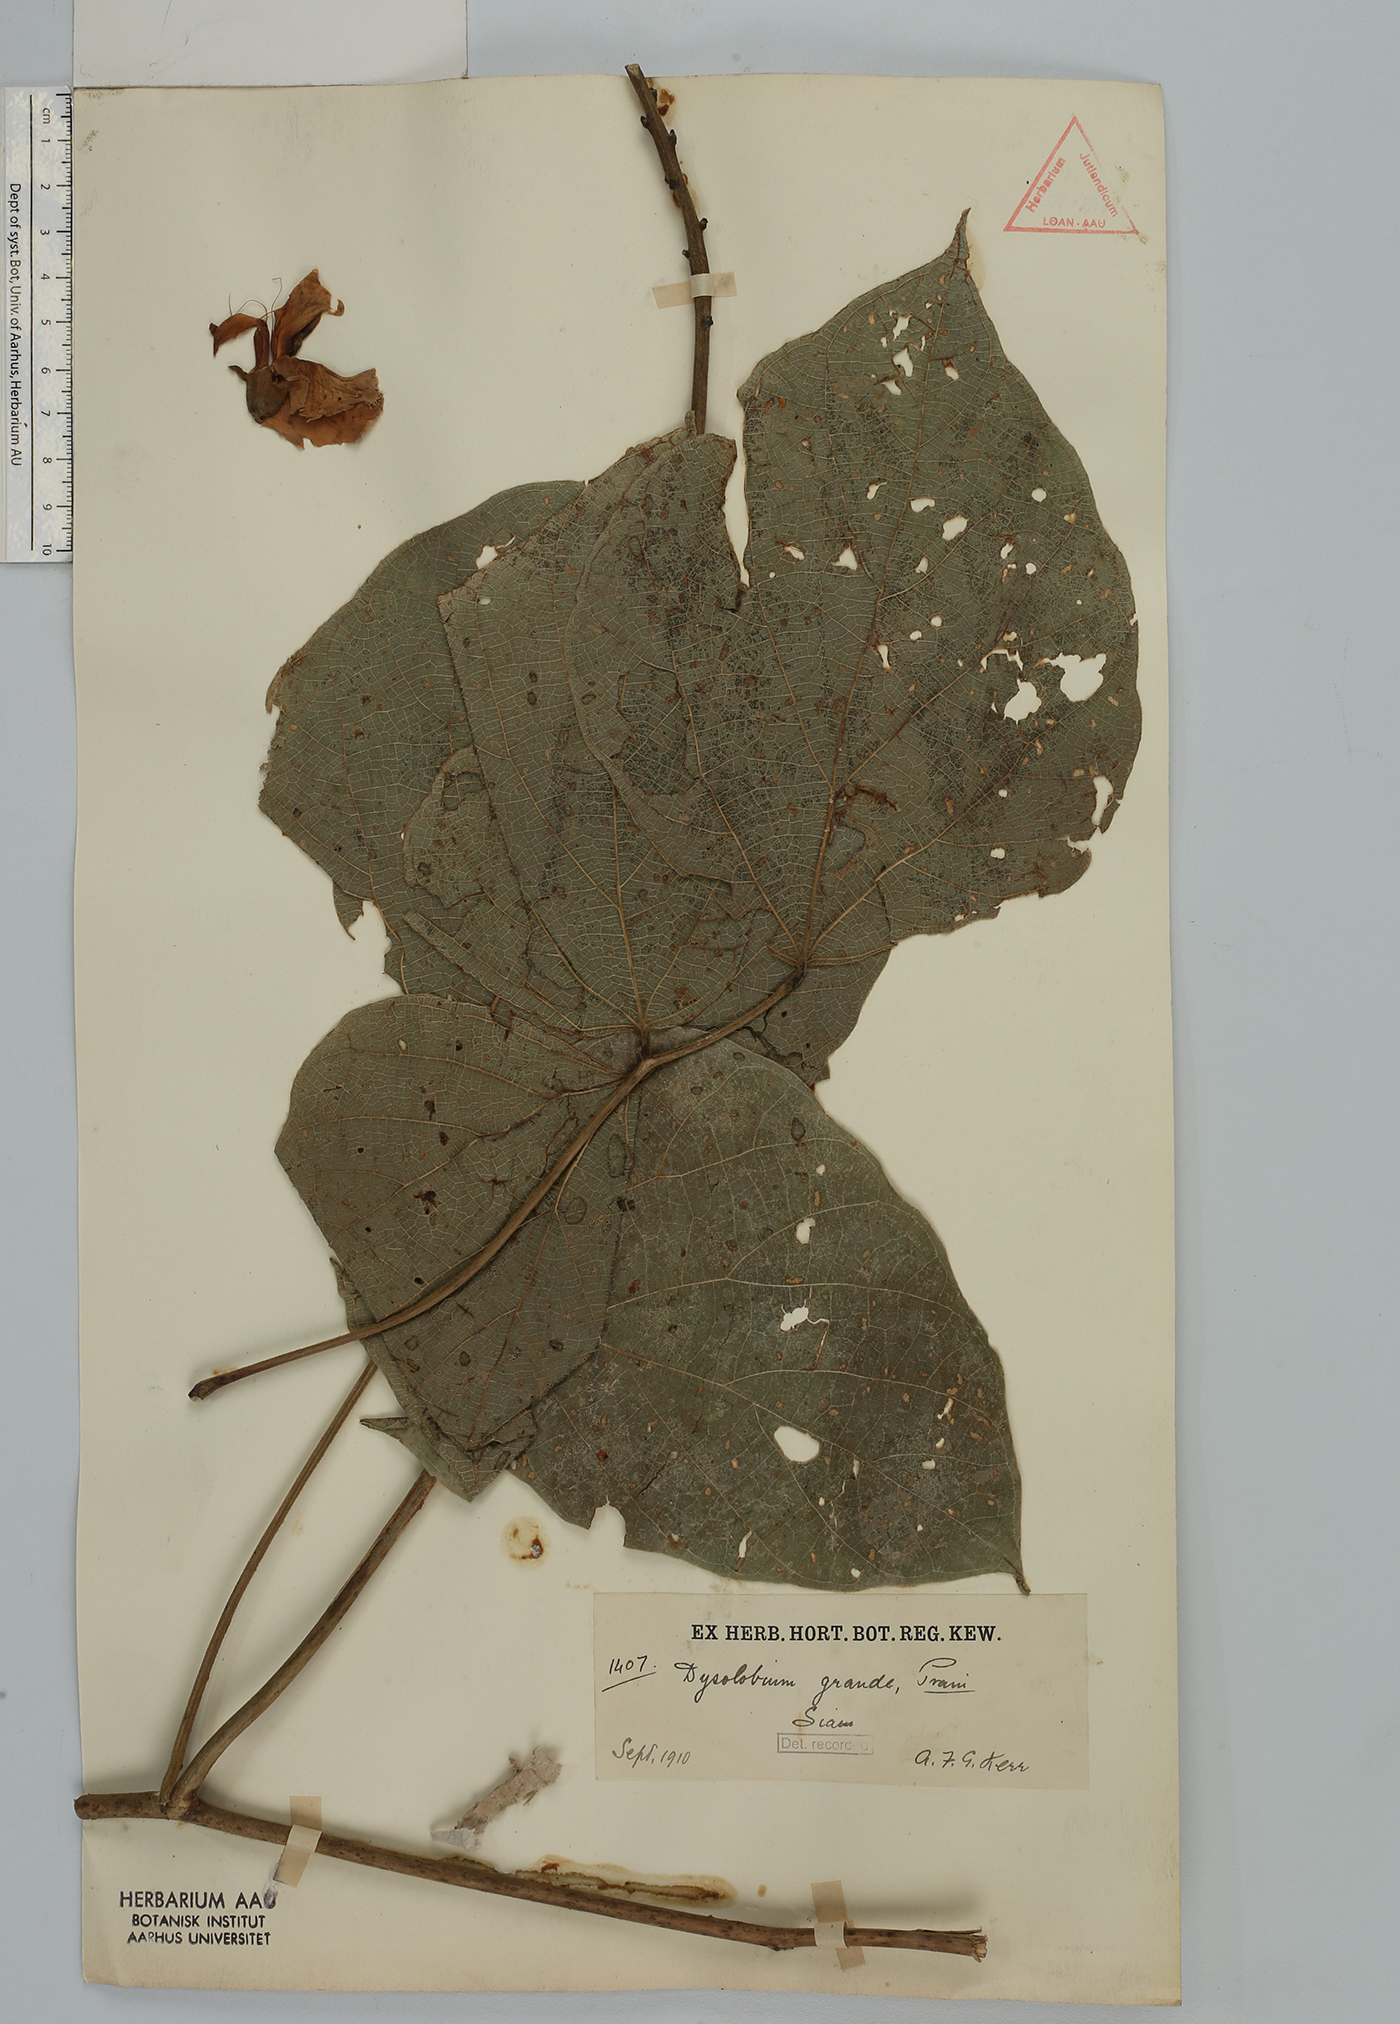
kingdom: Plantae
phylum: Tracheophyta
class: Magnoliopsida
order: Fabales
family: Fabaceae
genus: Dysolobium
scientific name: Dysolobium grande
